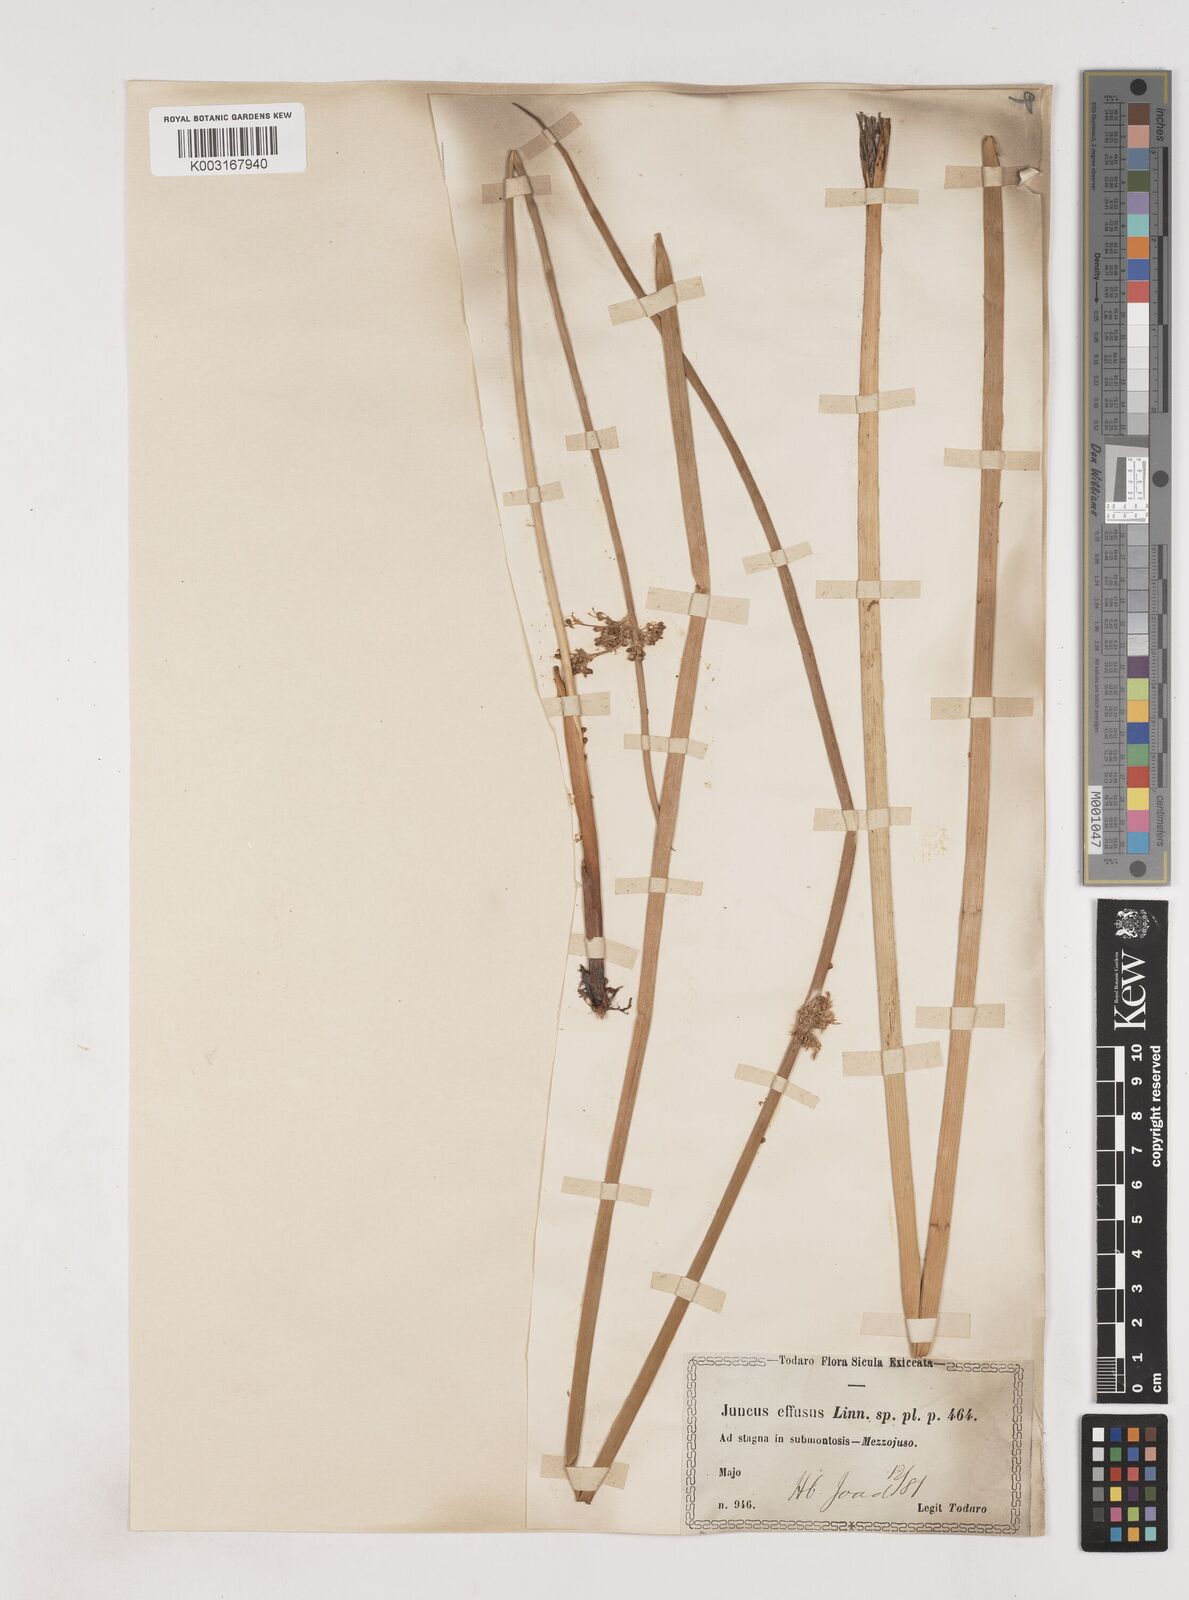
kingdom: Plantae
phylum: Tracheophyta
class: Liliopsida
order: Poales
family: Juncaceae
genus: Juncus
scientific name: Juncus effusus
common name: Soft rush
